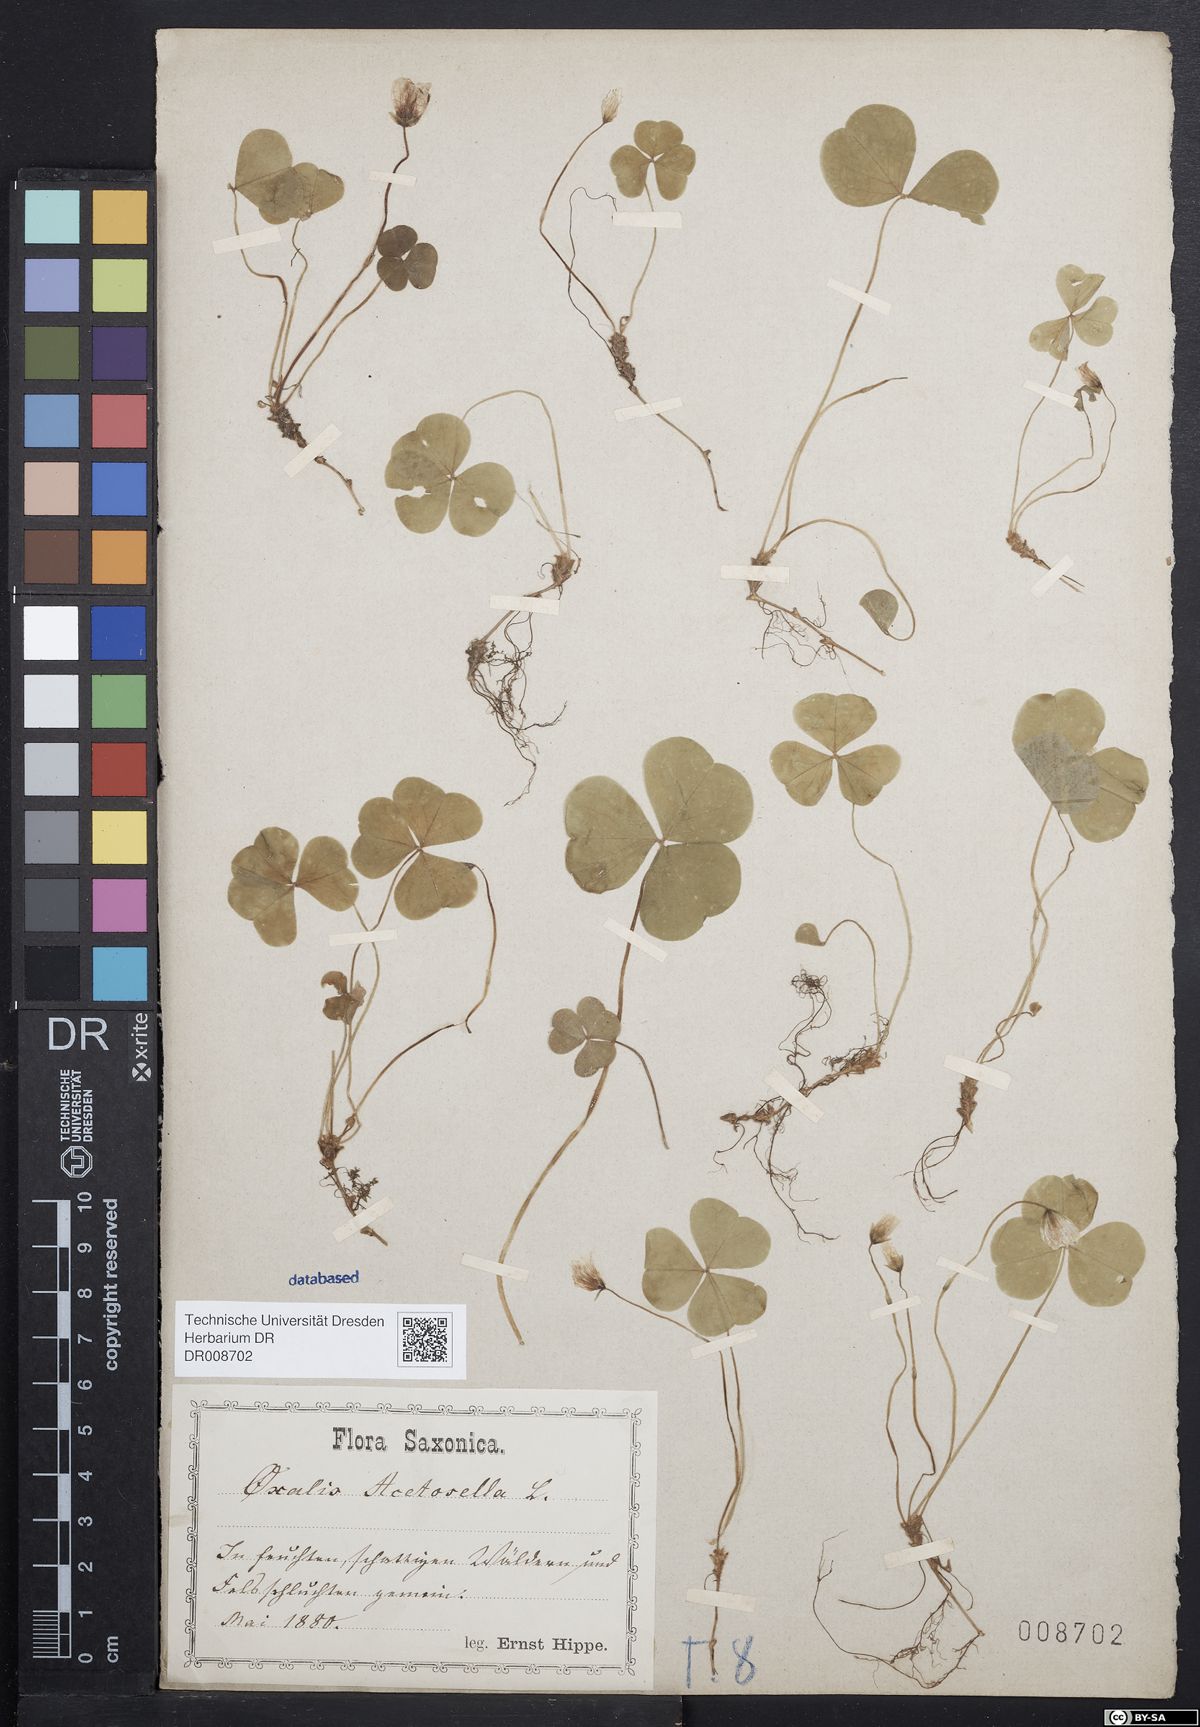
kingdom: Plantae
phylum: Tracheophyta
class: Magnoliopsida
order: Oxalidales
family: Oxalidaceae
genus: Oxalis
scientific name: Oxalis acetosella
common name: Wood-sorrel
